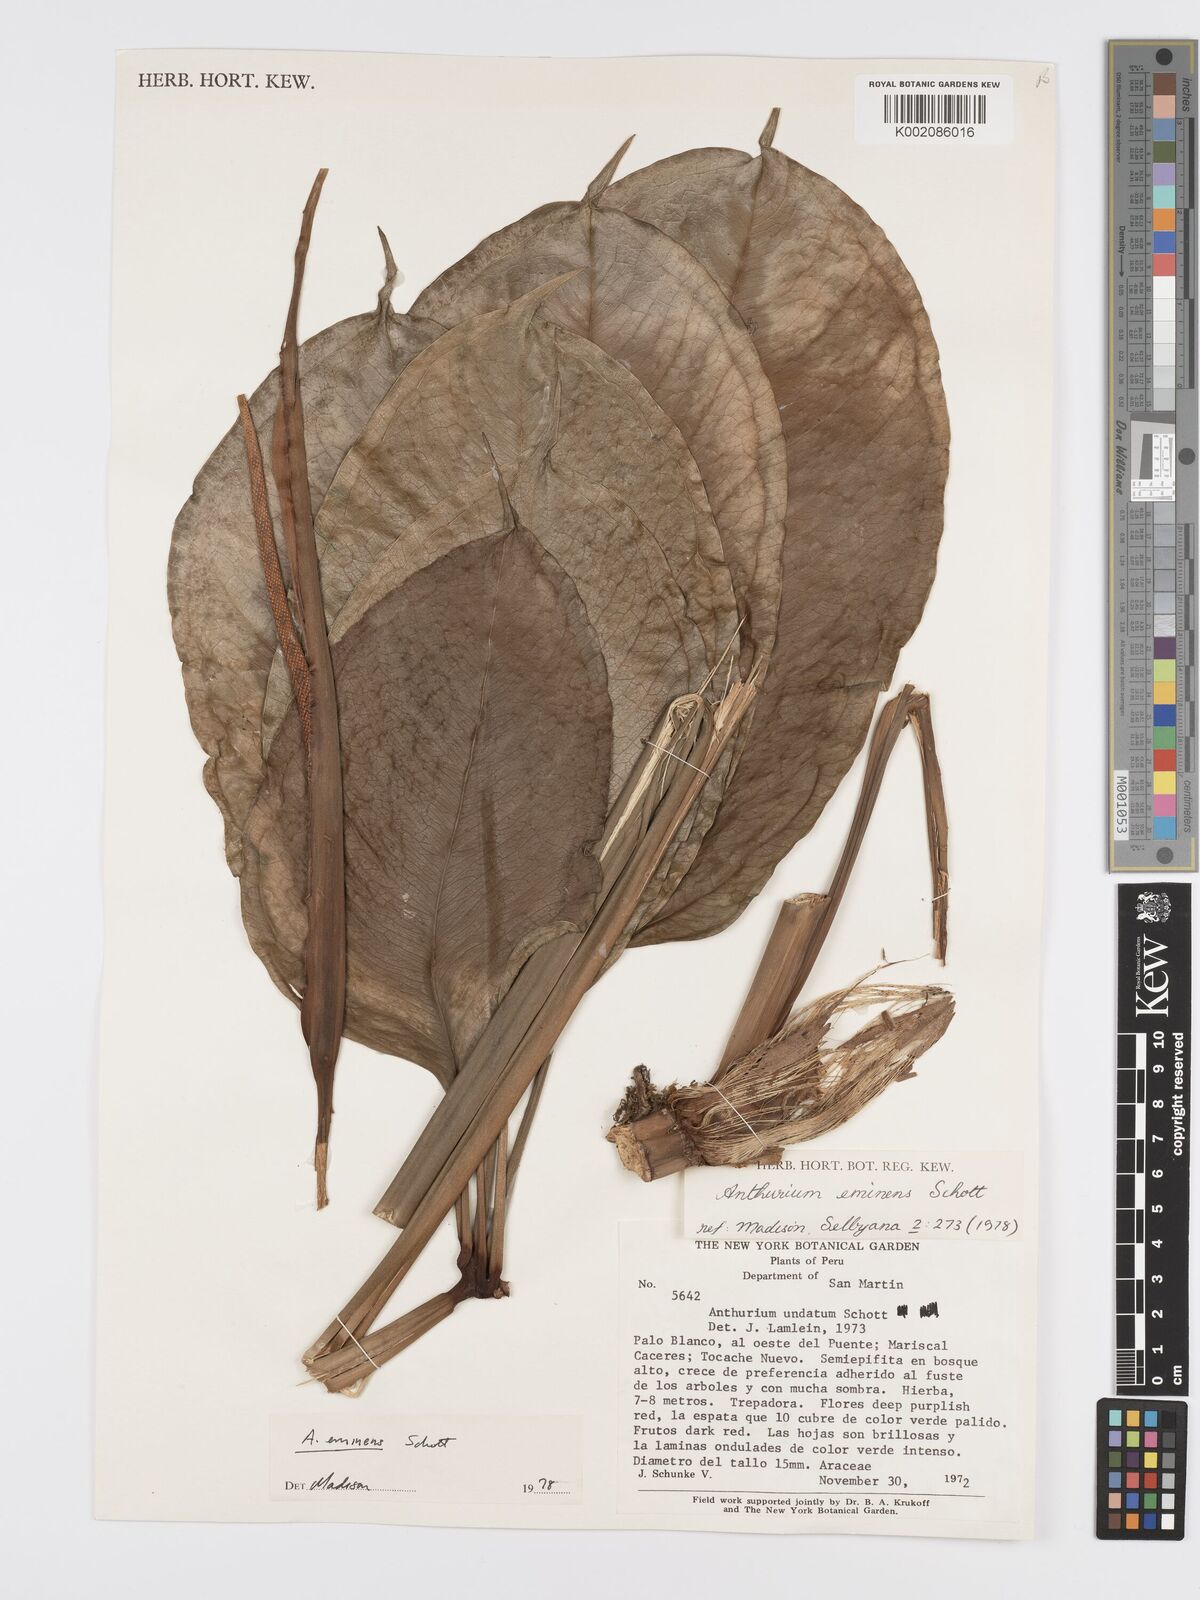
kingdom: Plantae
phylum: Tracheophyta
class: Liliopsida
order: Alismatales
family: Araceae
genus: Anthurium
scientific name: Anthurium eminens
